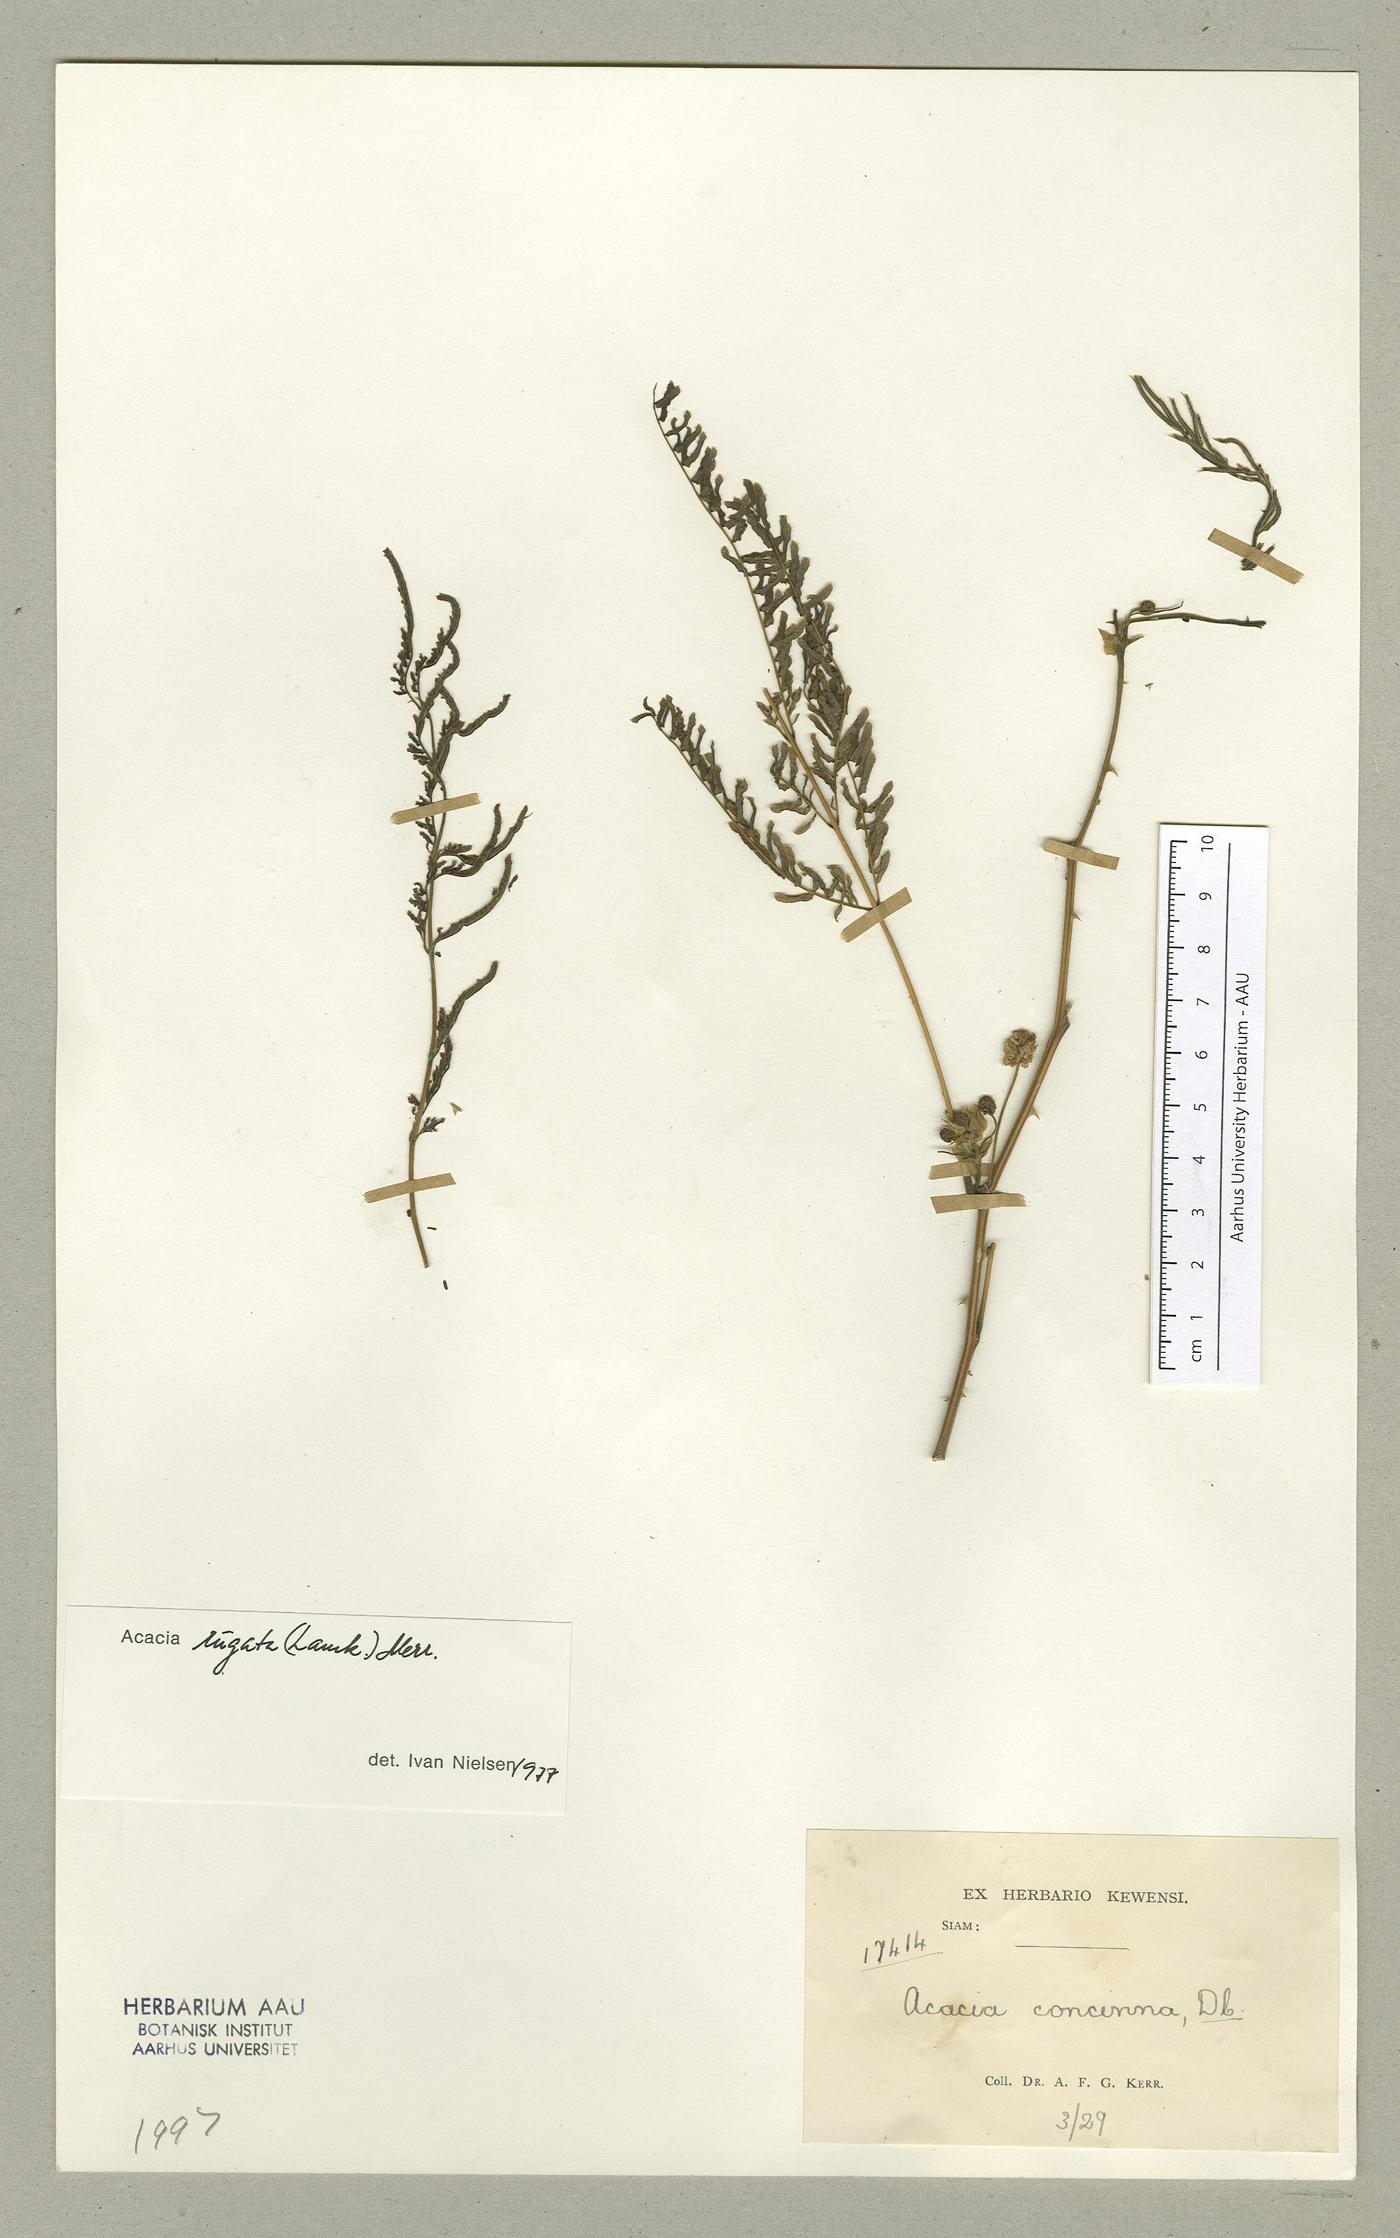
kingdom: Plantae
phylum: Tracheophyta
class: Magnoliopsida
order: Fabales
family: Fabaceae
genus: Senegalia
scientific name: Senegalia rugata
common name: Soap-pod
